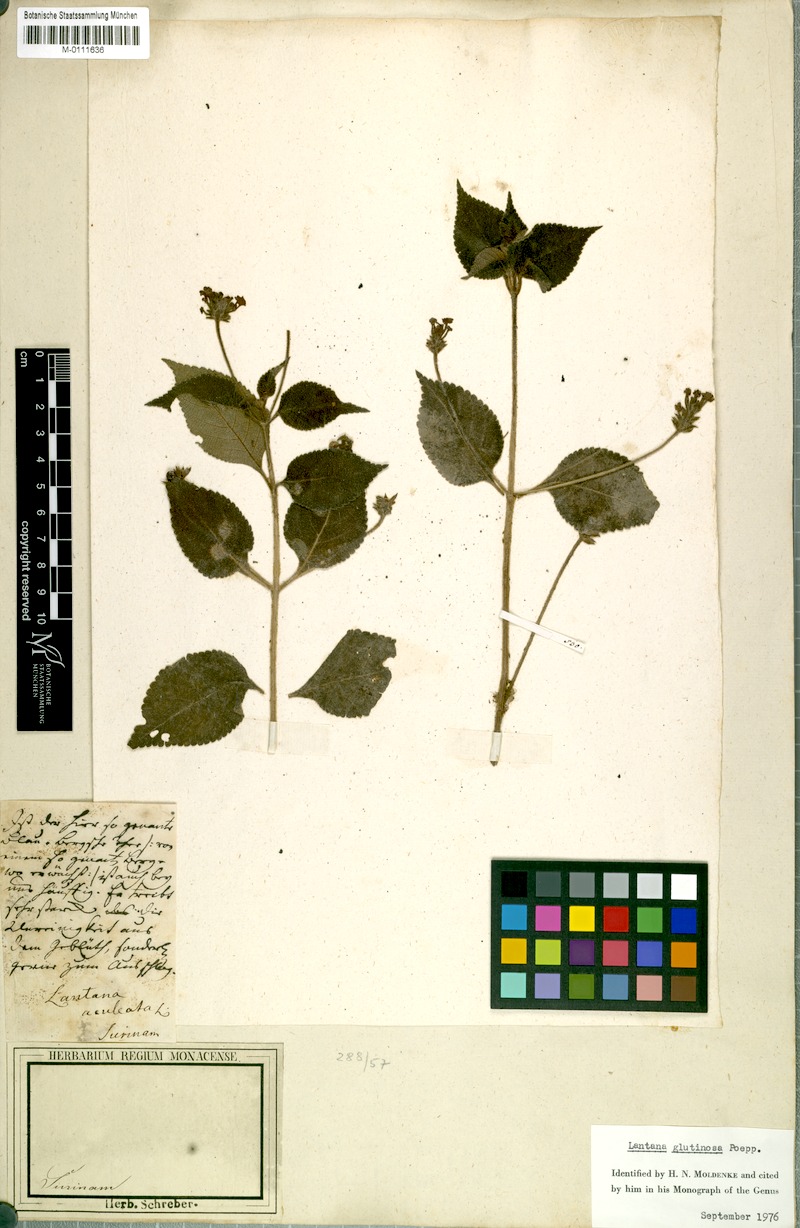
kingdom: Plantae
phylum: Tracheophyta
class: Magnoliopsida
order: Lamiales
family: Verbenaceae
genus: Lantana
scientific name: Lantana horrida
